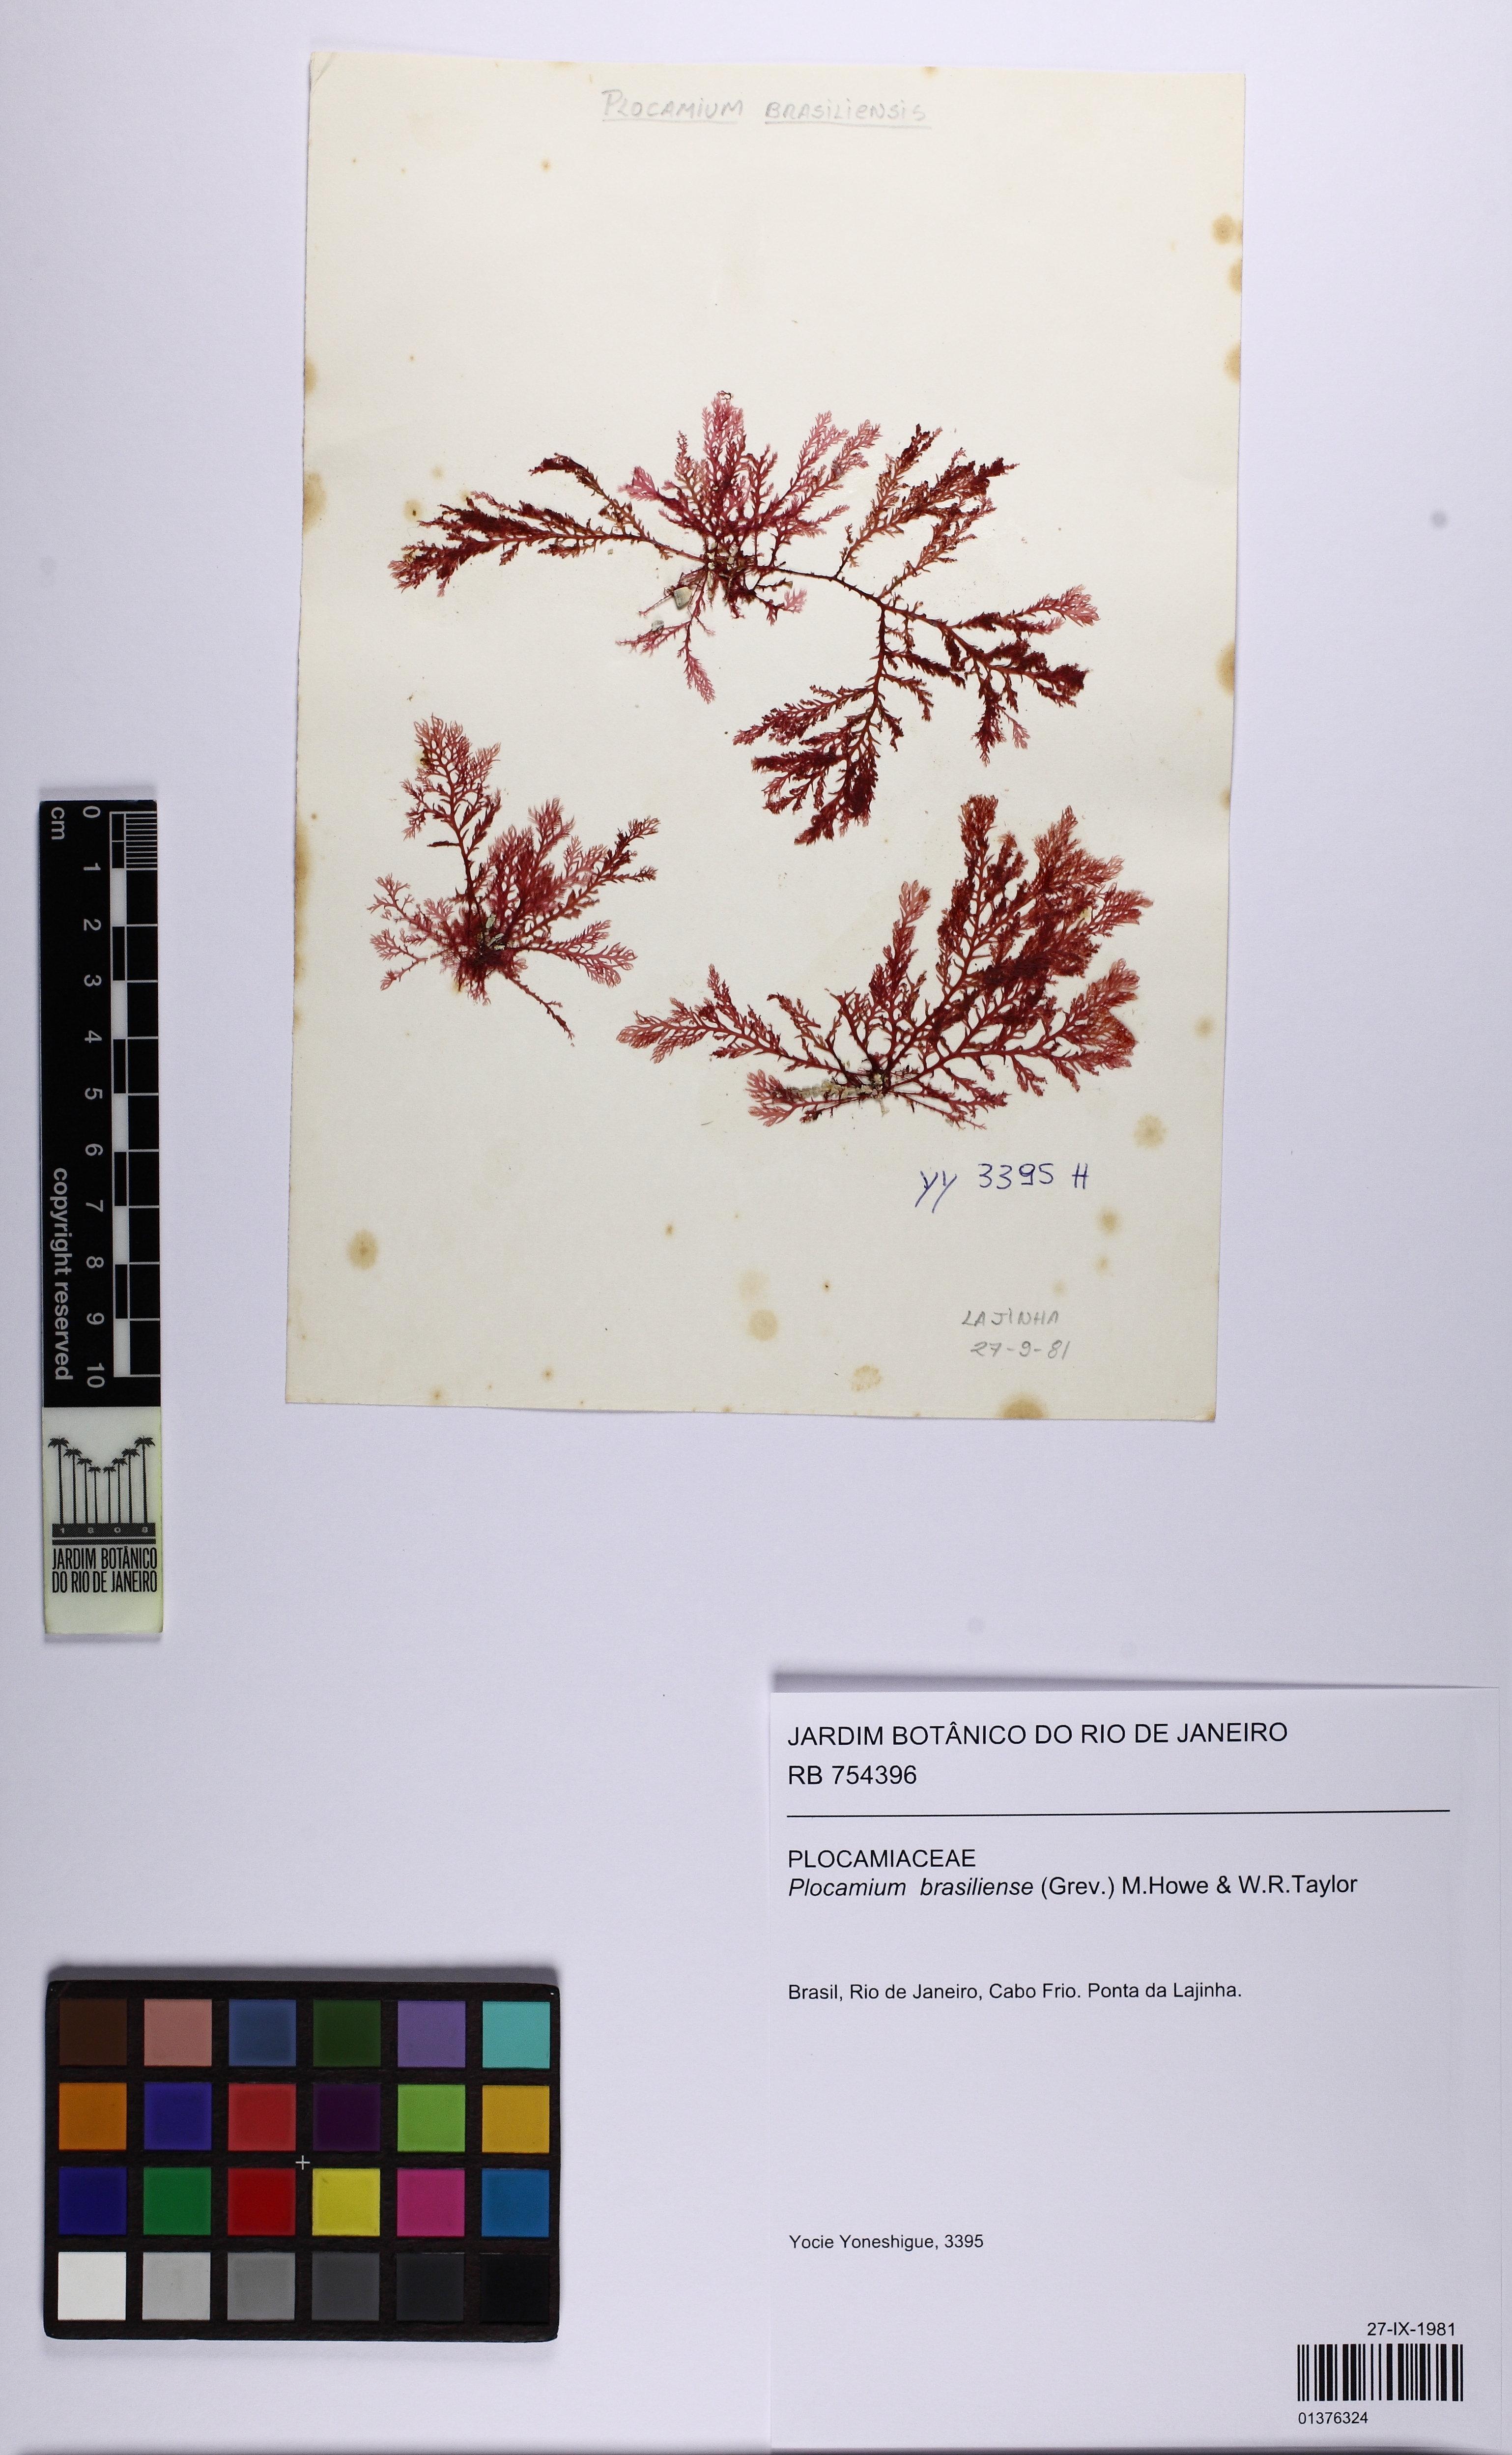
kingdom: Plantae
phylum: Rhodophyta
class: Florideophyceae
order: Plocamiales
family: Plocamiaceae
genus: Plocamium
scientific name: Plocamium brasiliense
